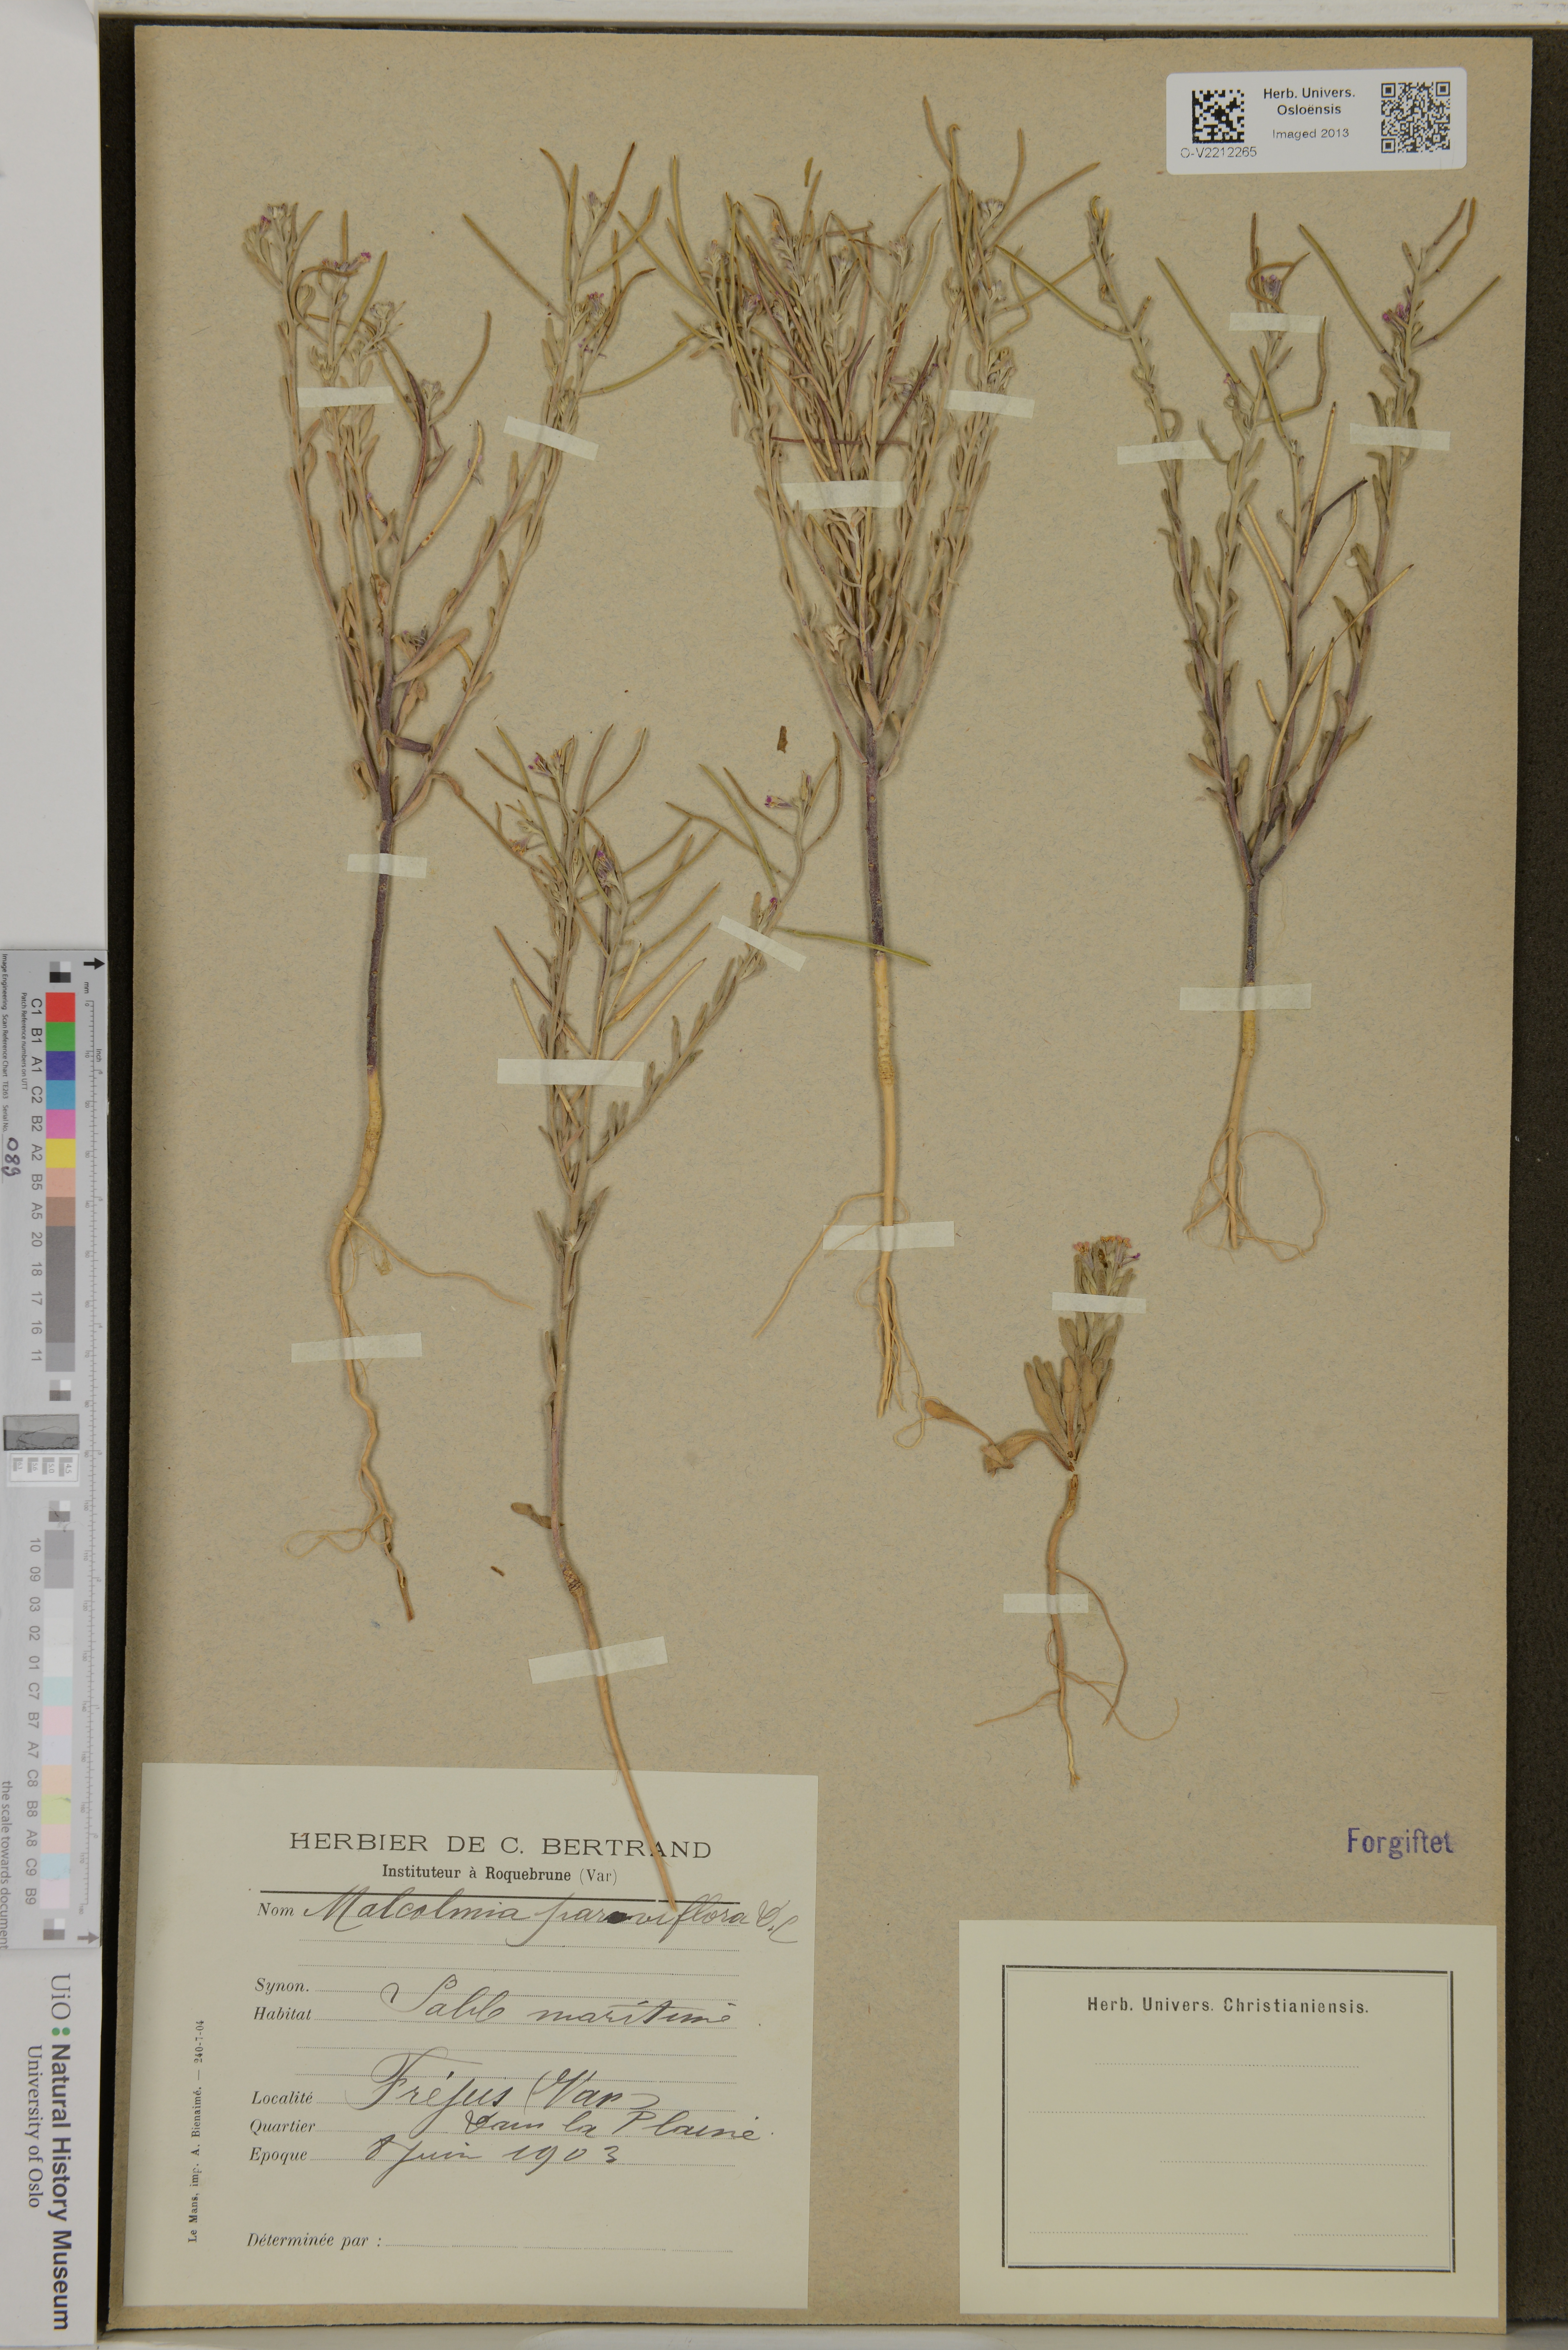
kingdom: Plantae
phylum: Tracheophyta
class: Magnoliopsida
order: Brassicales
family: Brassicaceae
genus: Marcuskochia
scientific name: Marcuskochia ramosissima
